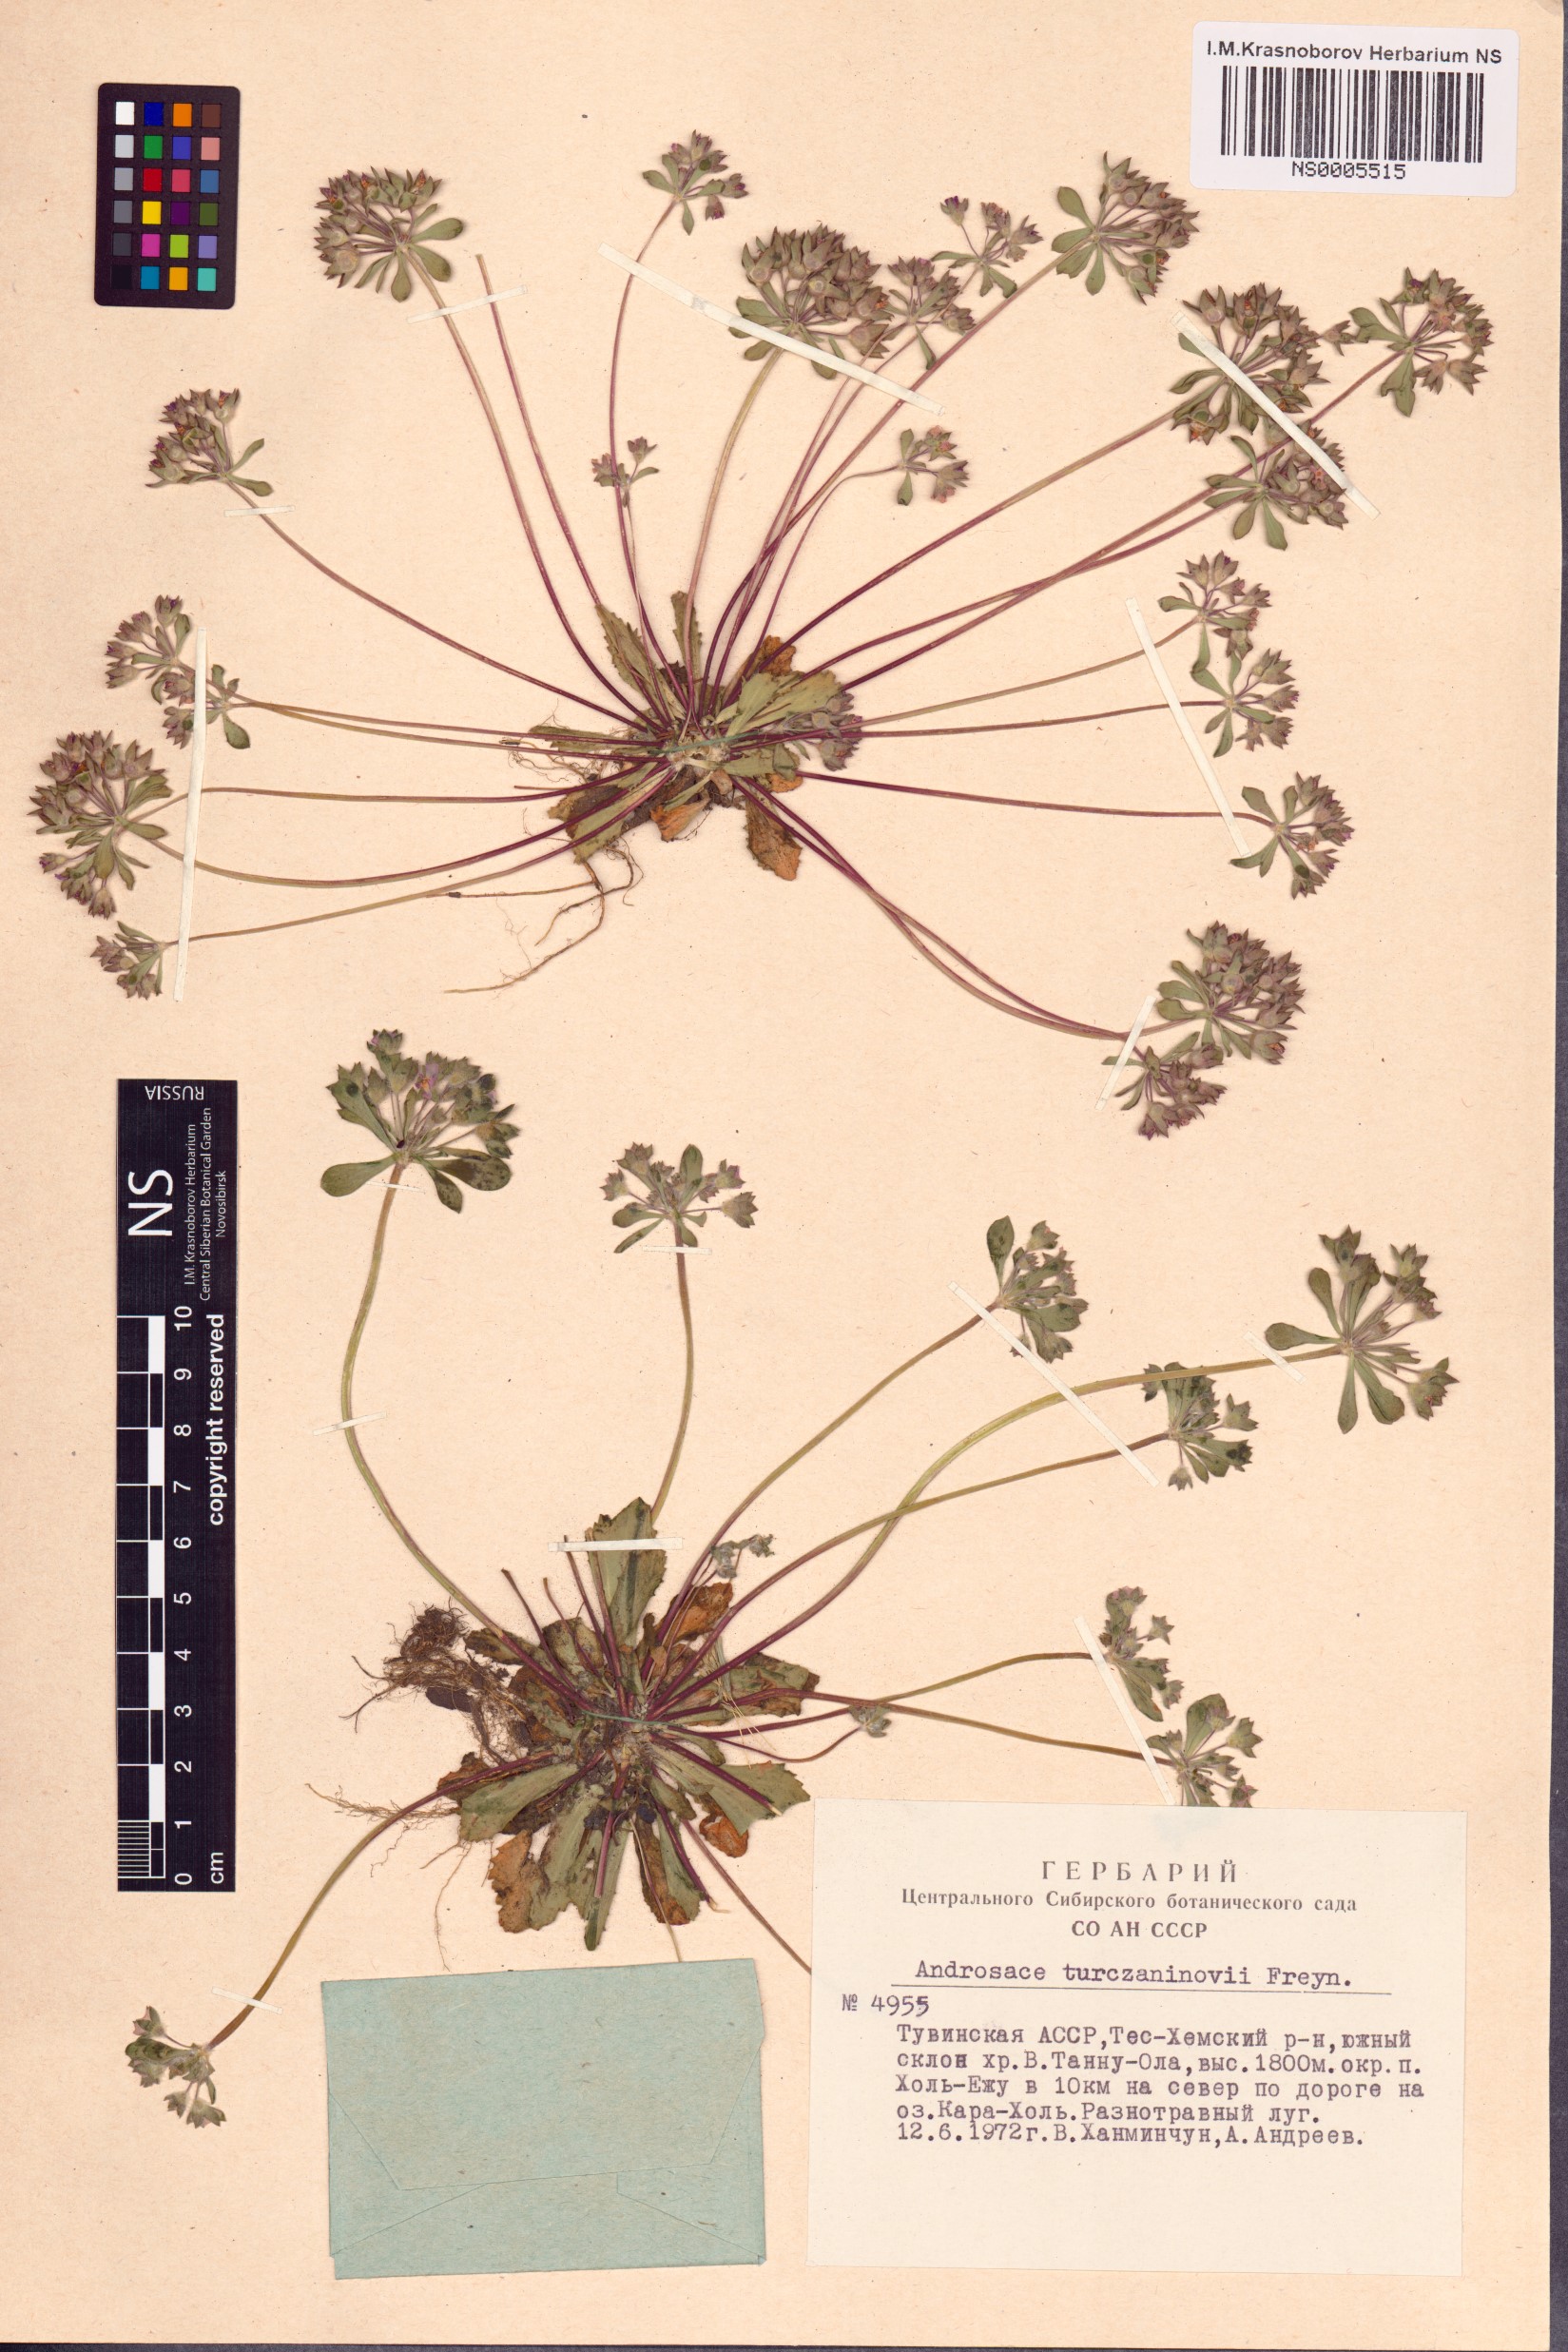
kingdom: Plantae
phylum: Tracheophyta
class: Magnoliopsida
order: Ericales
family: Primulaceae
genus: Androsace
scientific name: Androsace maxima
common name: Annual androsace
